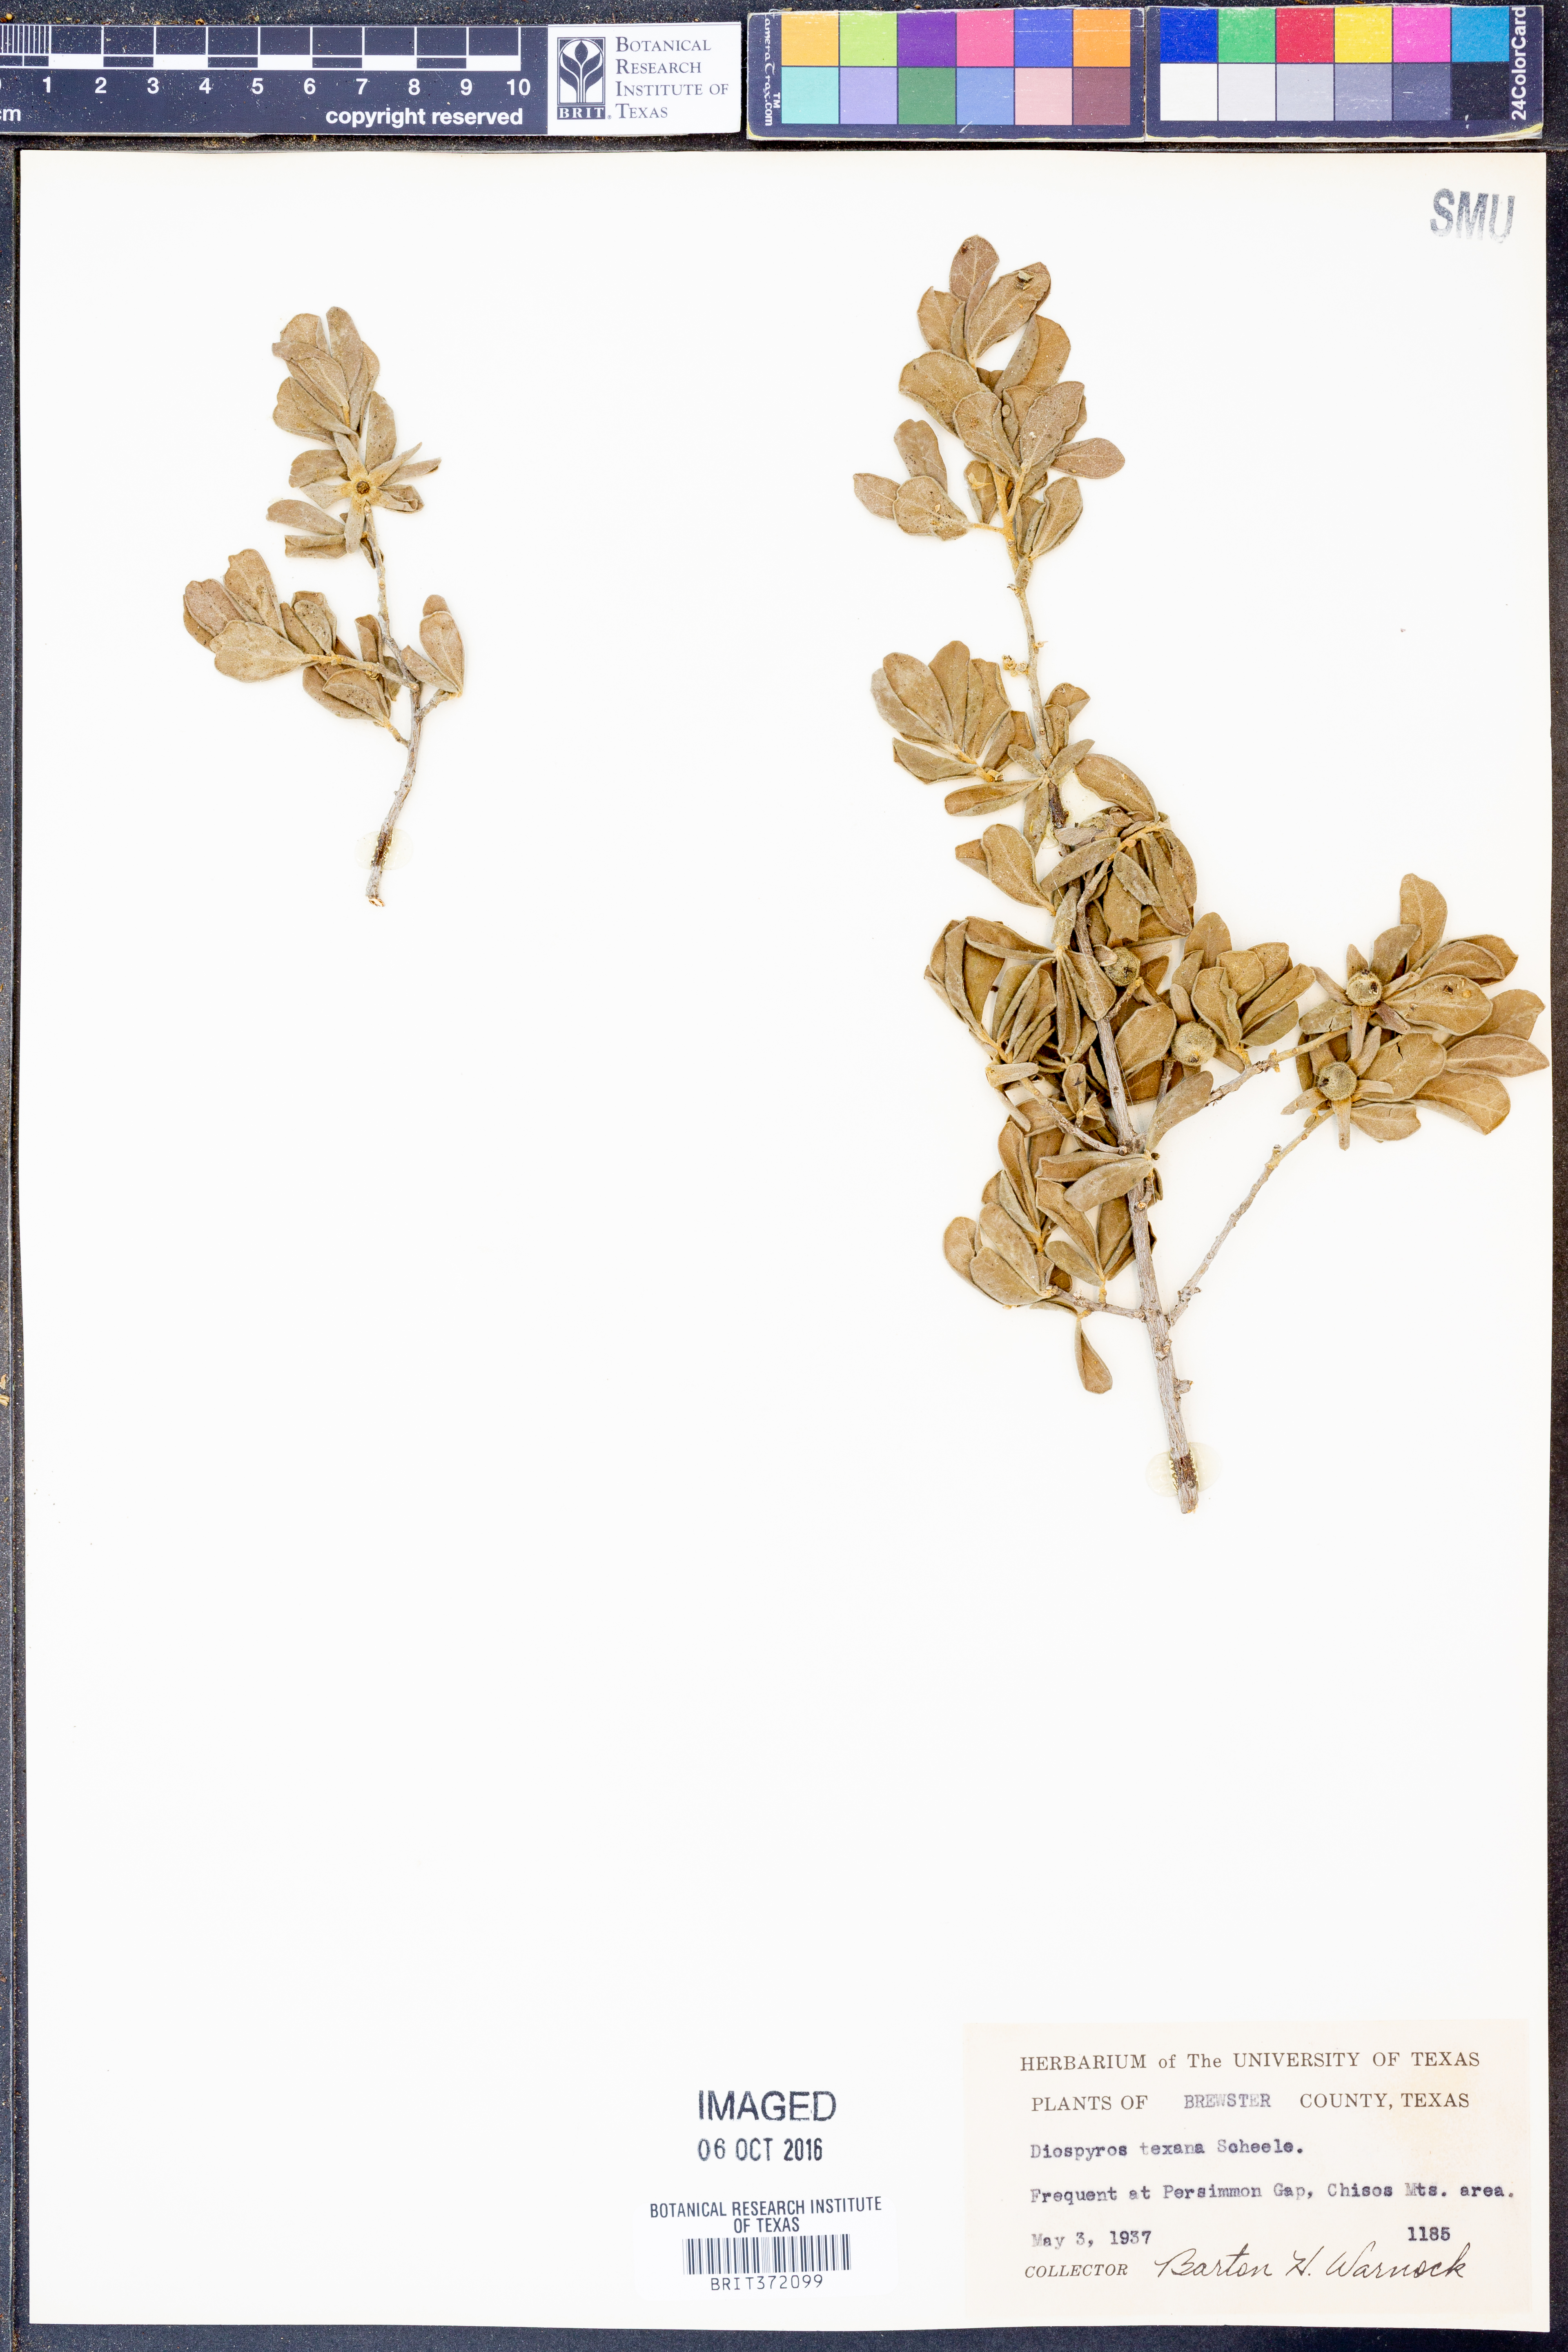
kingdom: Plantae
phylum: Tracheophyta
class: Magnoliopsida
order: Ericales
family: Ebenaceae
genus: Diospyros
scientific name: Diospyros texana
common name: Texas persimmon
